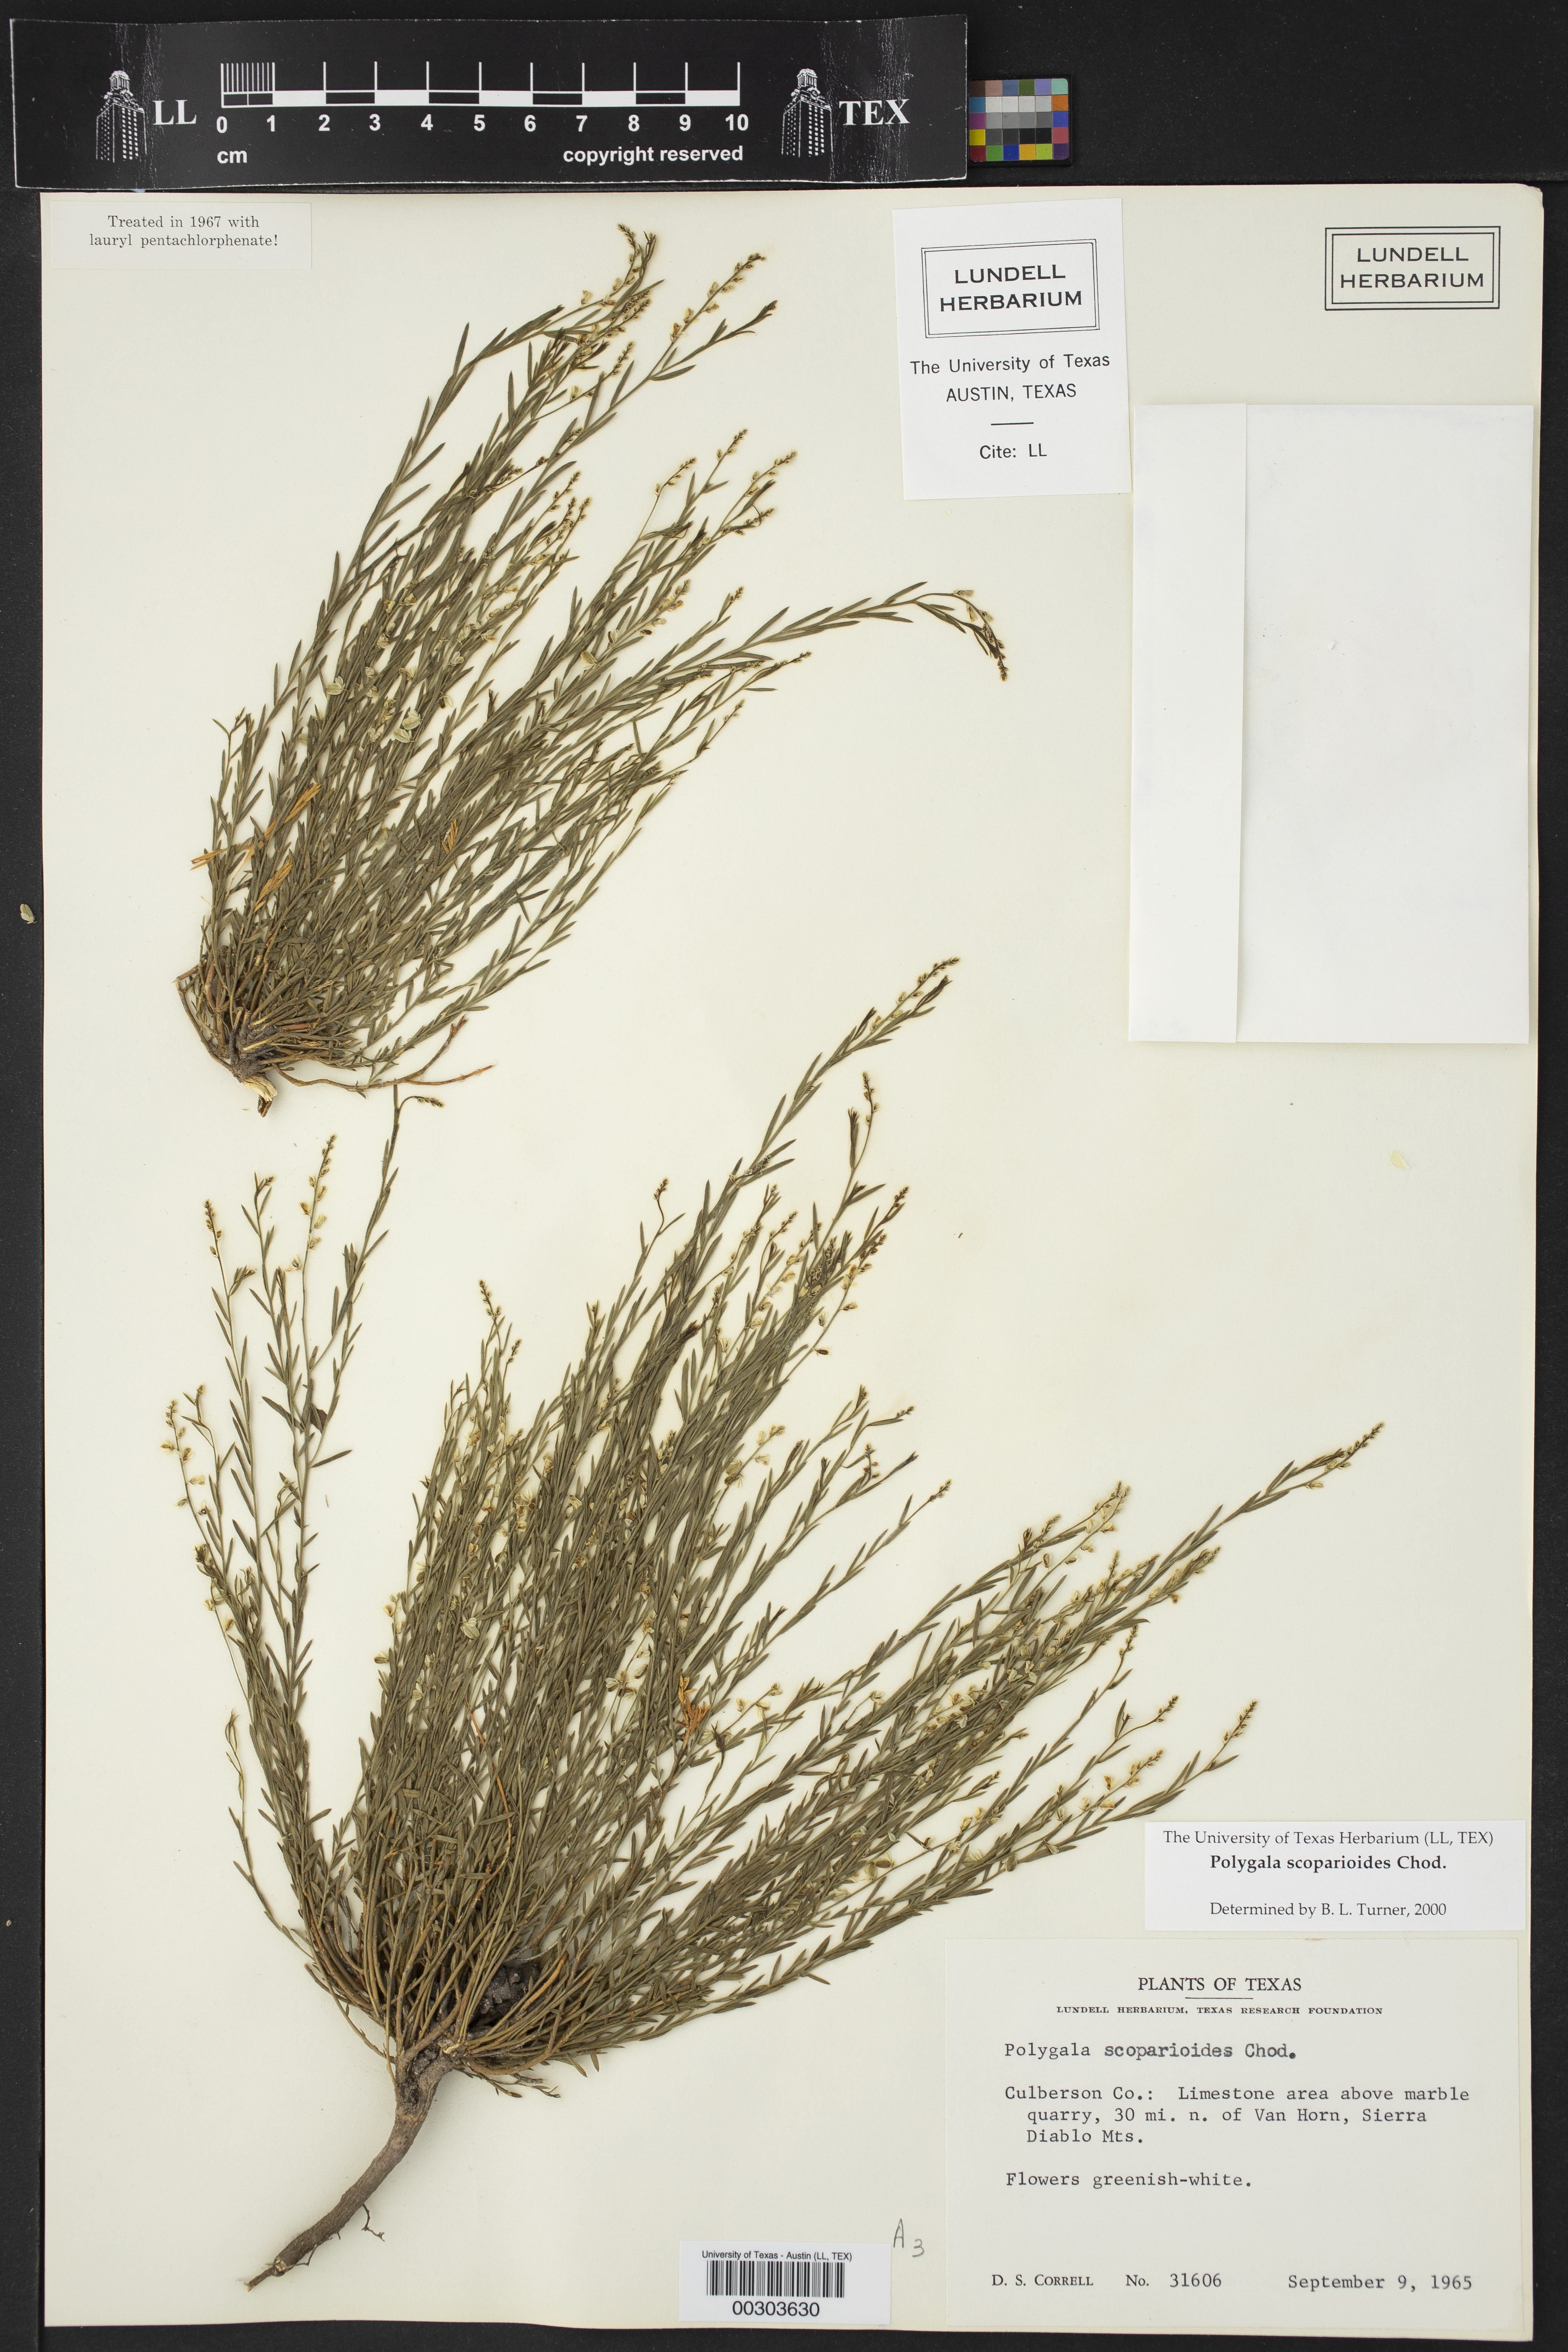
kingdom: Plantae
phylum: Tracheophyta
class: Magnoliopsida
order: Fabales
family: Polygalaceae
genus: Polygala
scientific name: Polygala scoparioides
